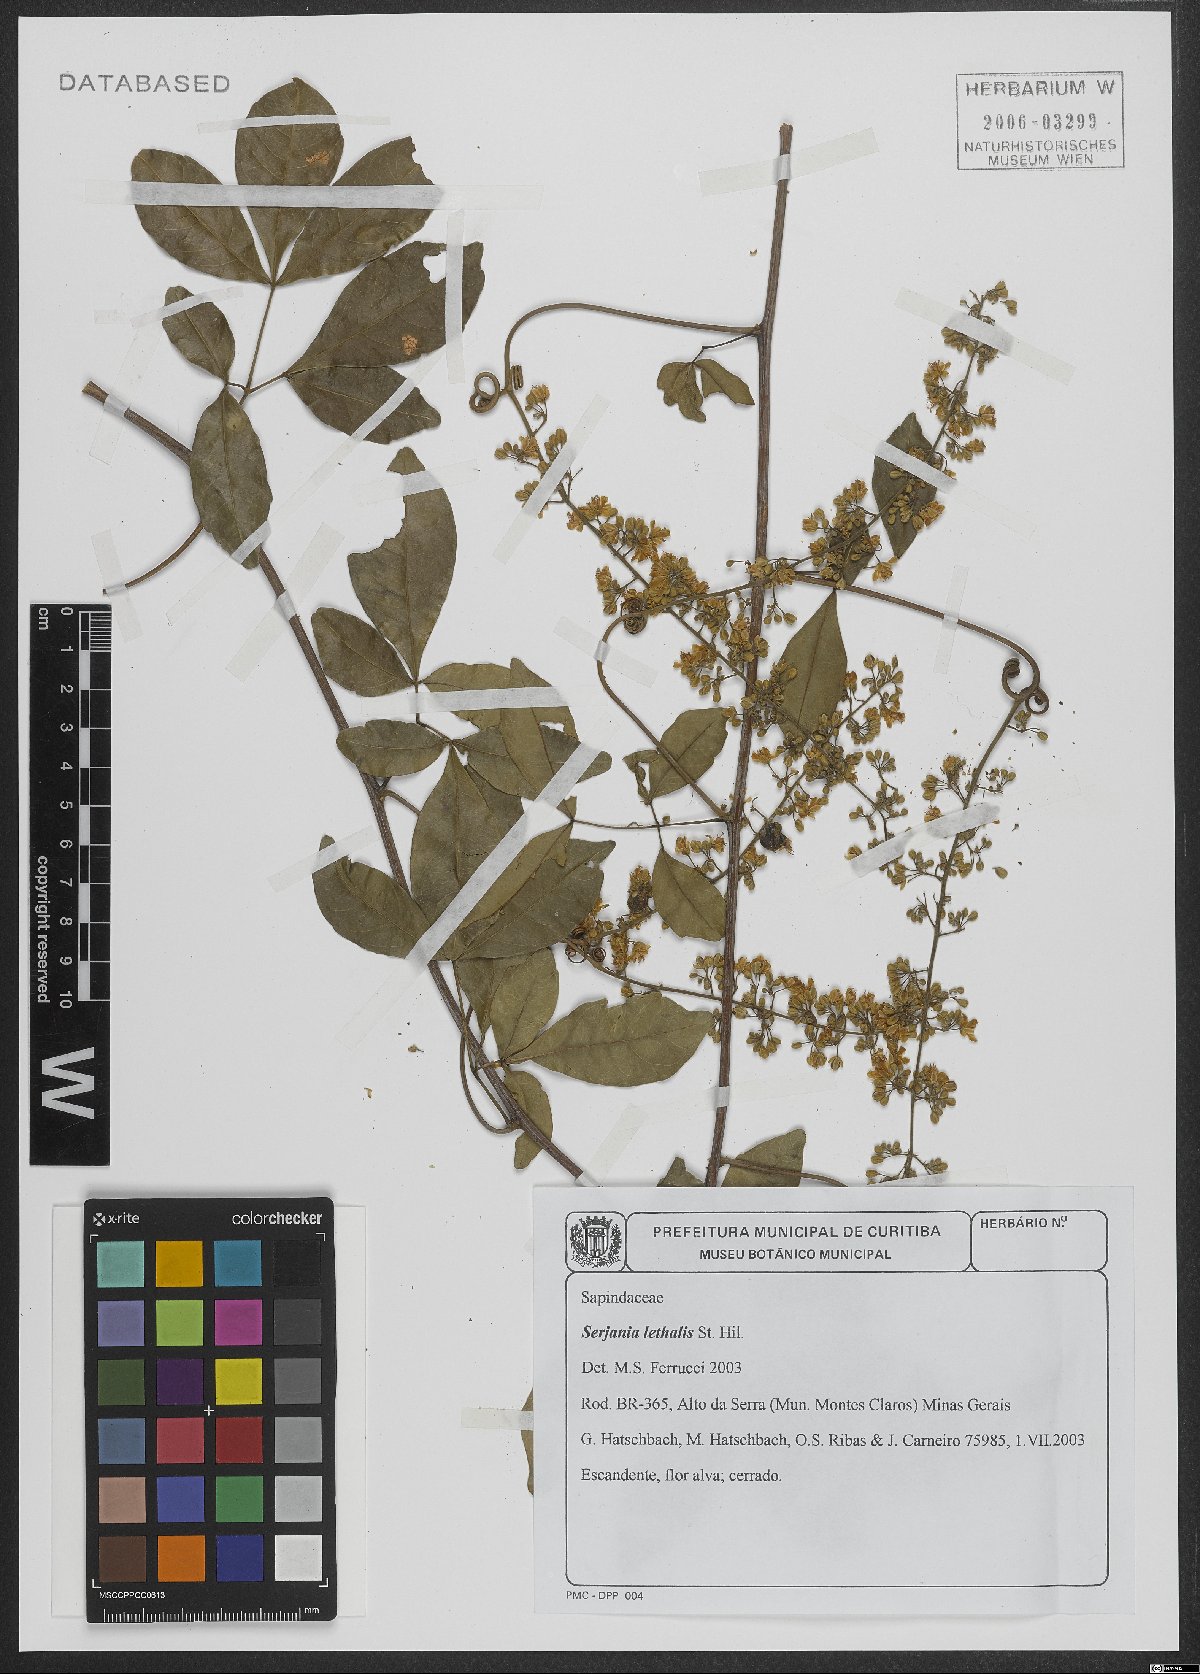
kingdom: Plantae
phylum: Tracheophyta
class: Magnoliopsida
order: Sapindales
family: Sapindaceae
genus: Serjania
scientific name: Serjania lethalis
